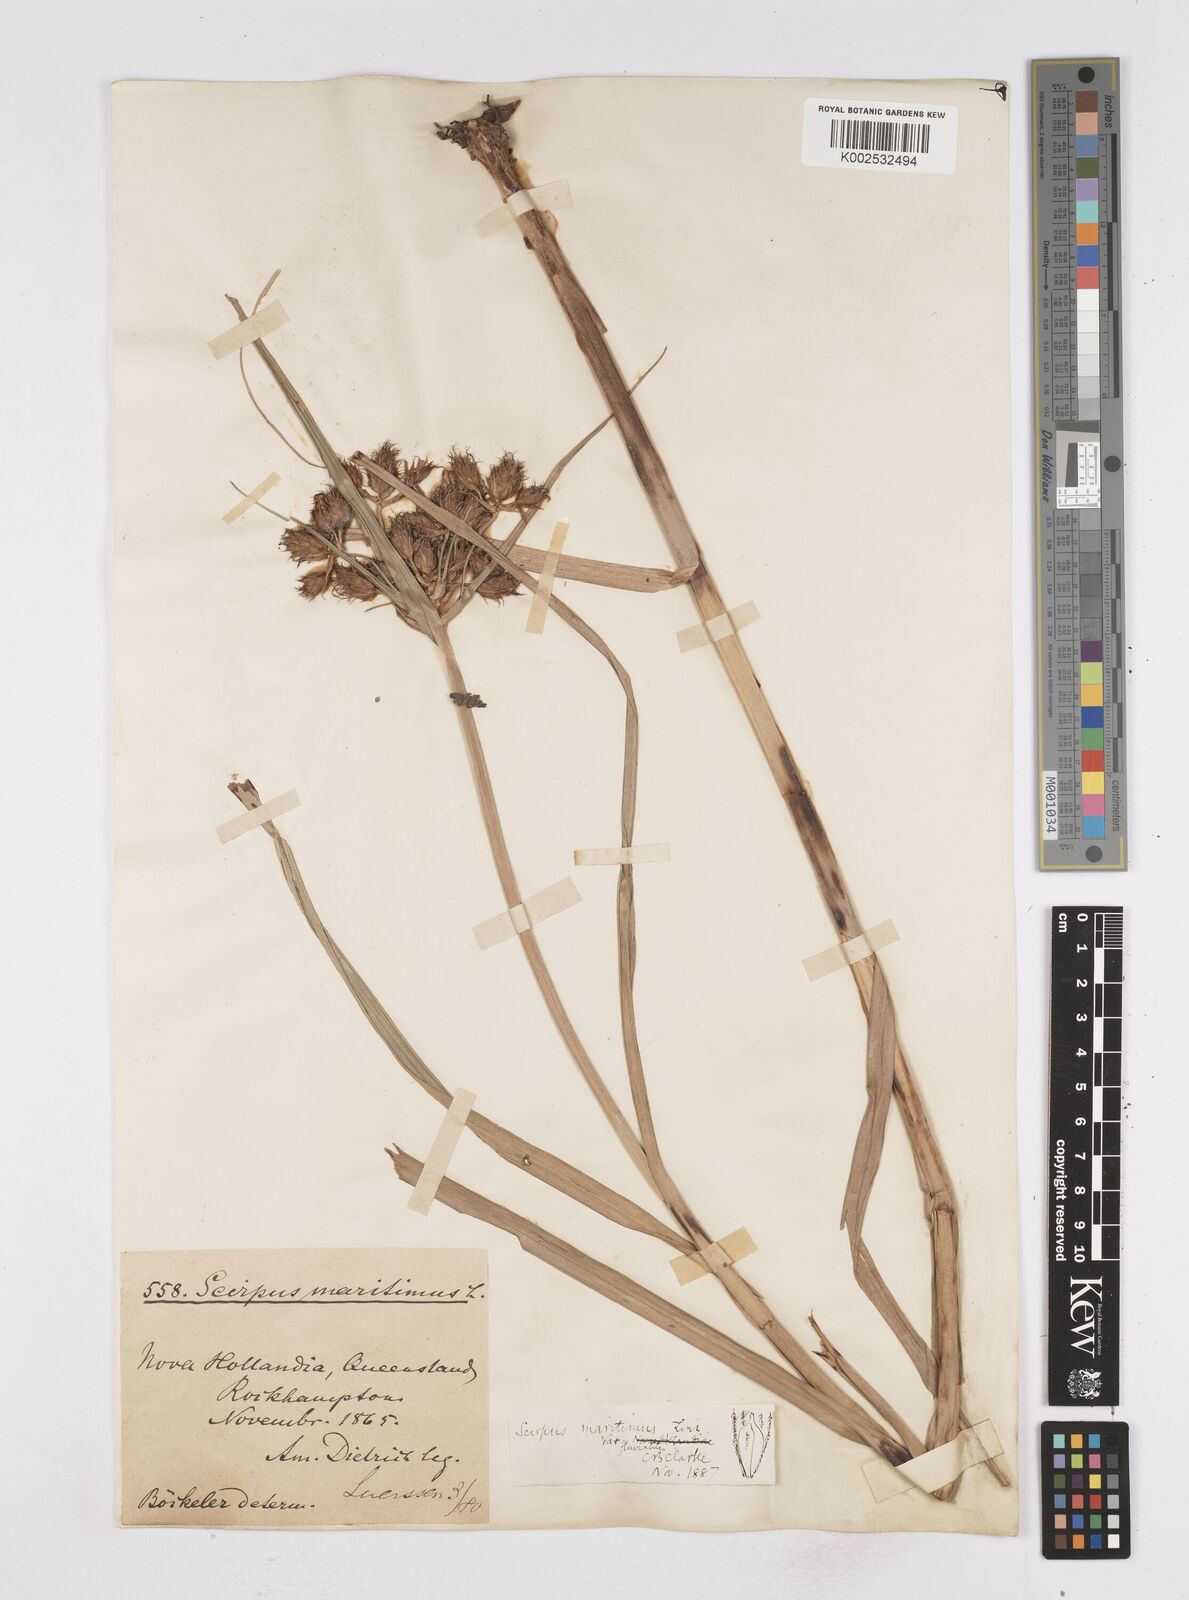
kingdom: Plantae
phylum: Tracheophyta
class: Liliopsida
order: Poales
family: Cyperaceae
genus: Bolboschoenus
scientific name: Bolboschoenus maritimus
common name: Sea club-rush
